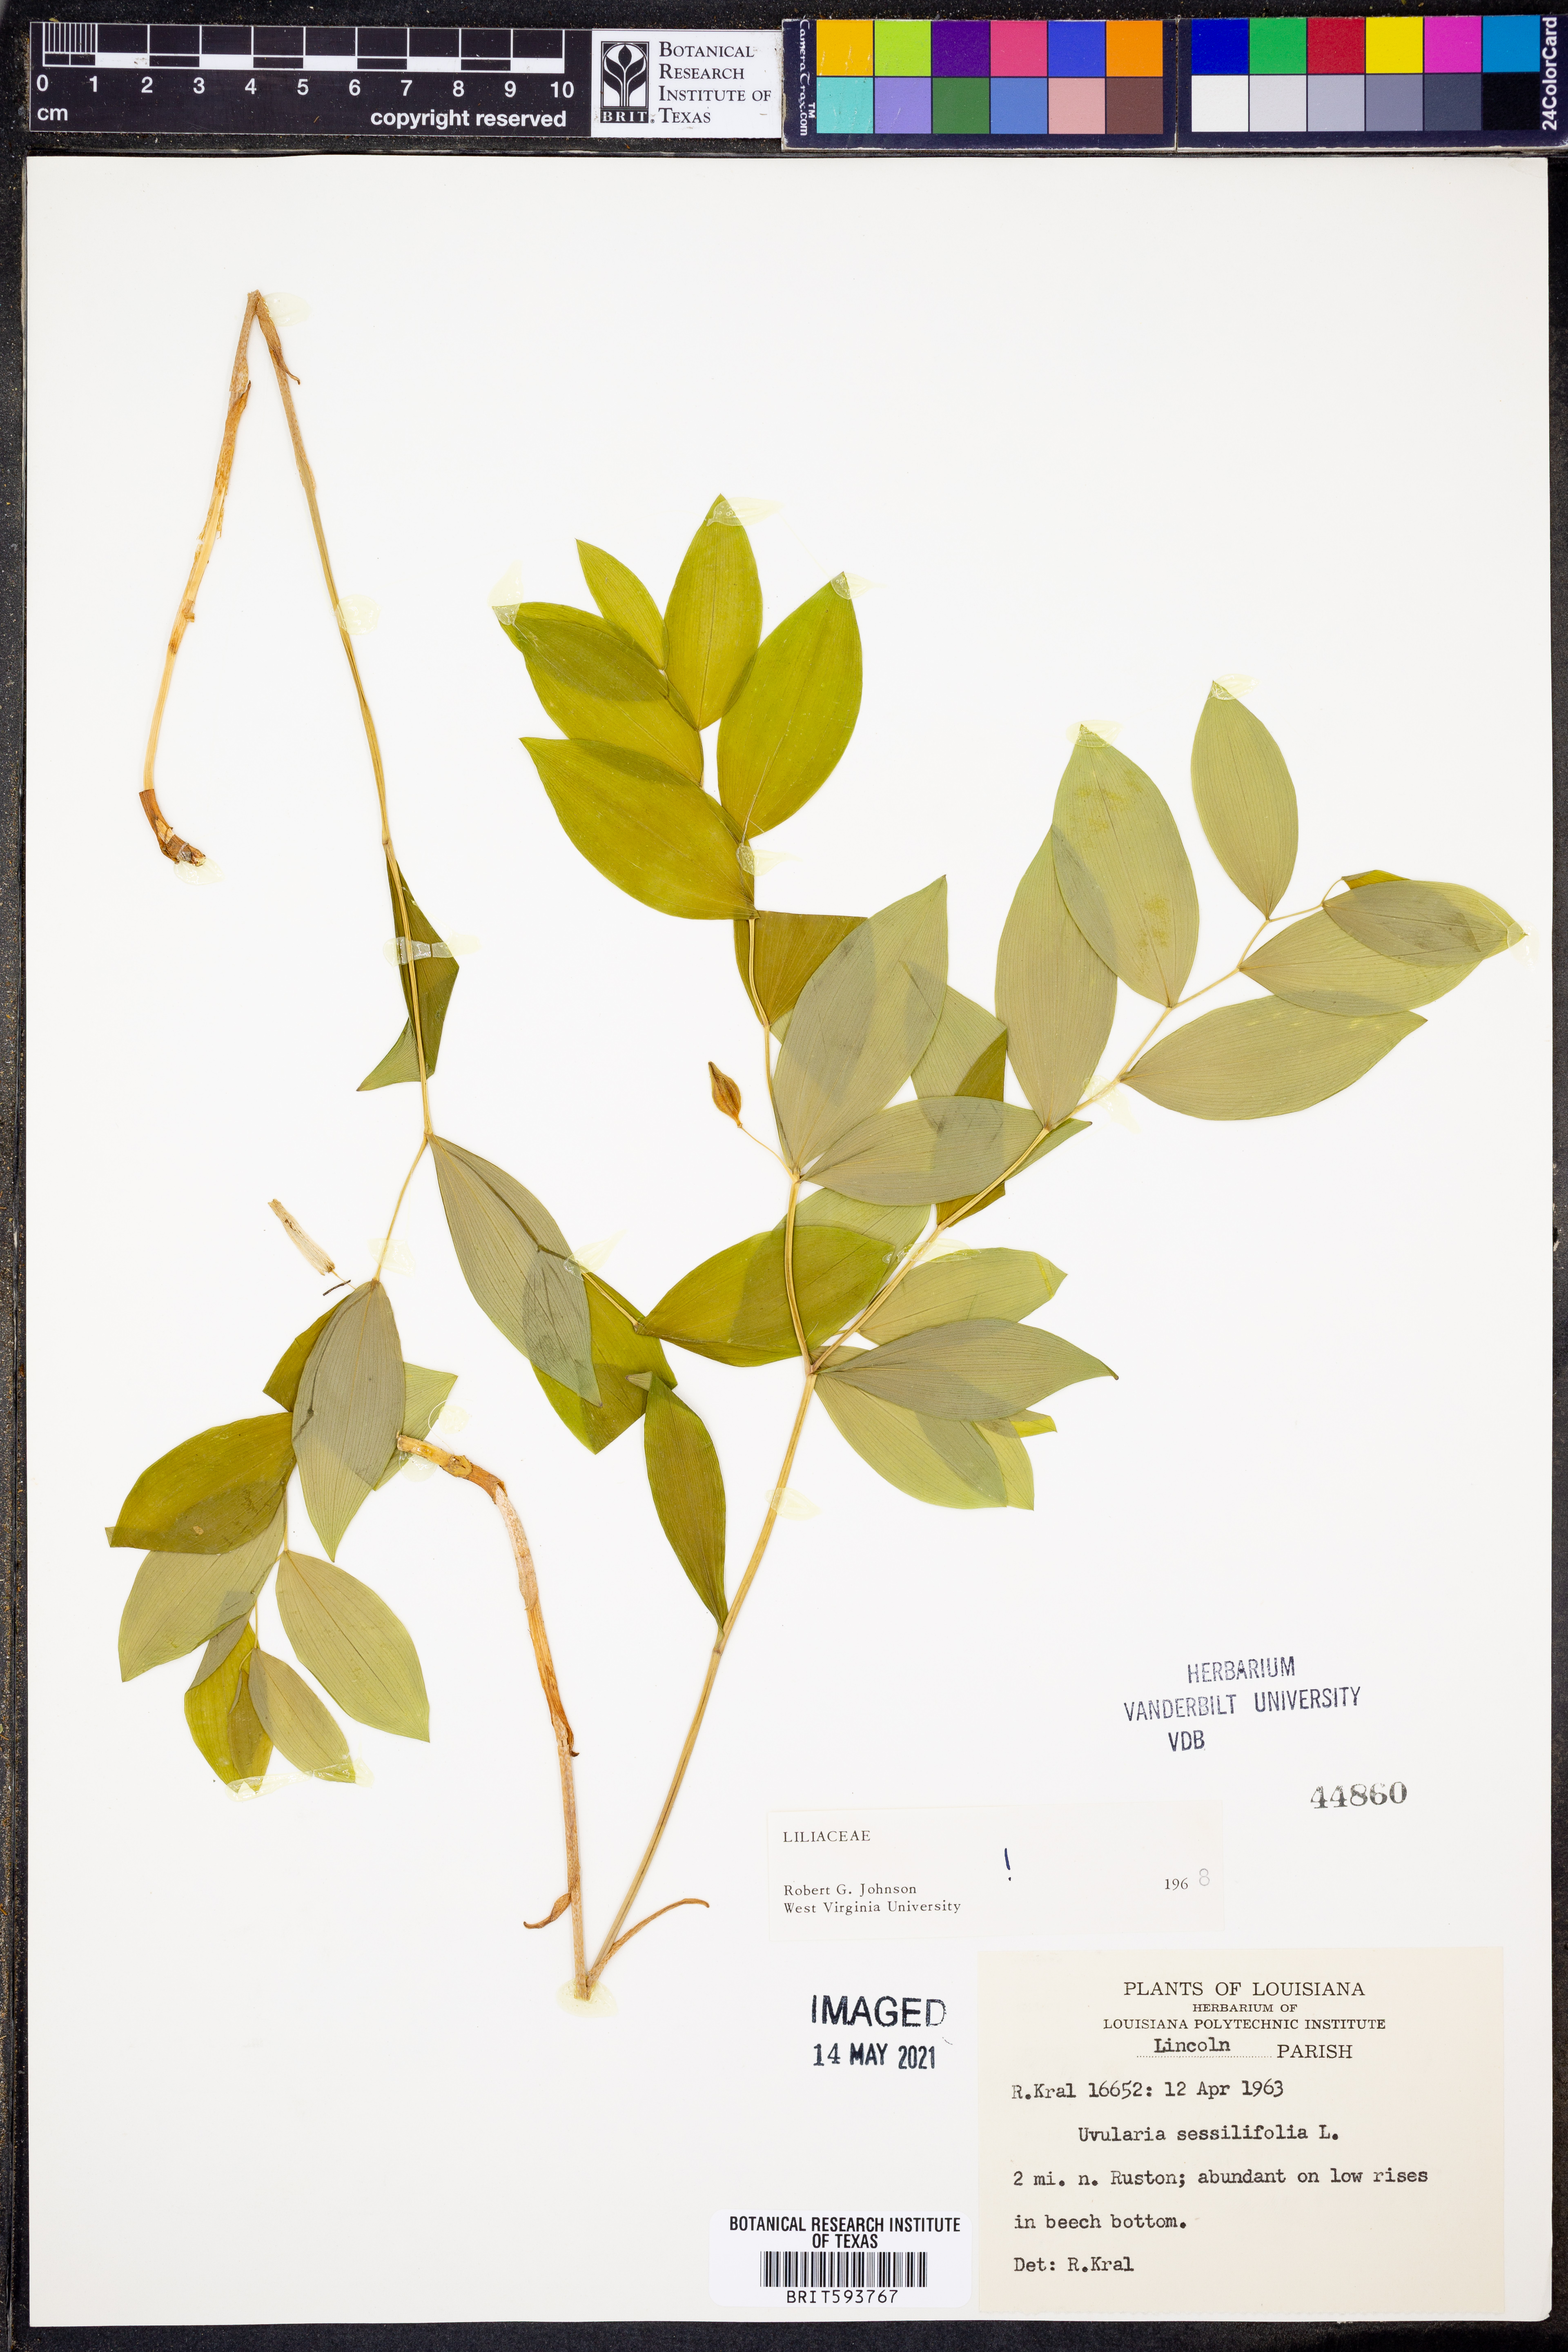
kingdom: Plantae
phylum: Tracheophyta
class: Liliopsida
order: Liliales
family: Colchicaceae
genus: Uvularia
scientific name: Uvularia sessilifolia
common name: Straw-lily
